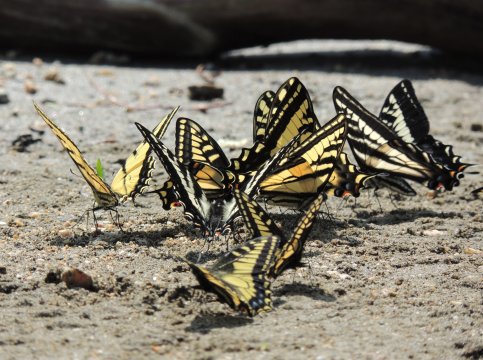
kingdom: Animalia
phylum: Arthropoda
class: Insecta
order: Lepidoptera
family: Papilionidae
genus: Pterourus
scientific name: Pterourus rutulus
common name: Western Tiger Swallowtail
